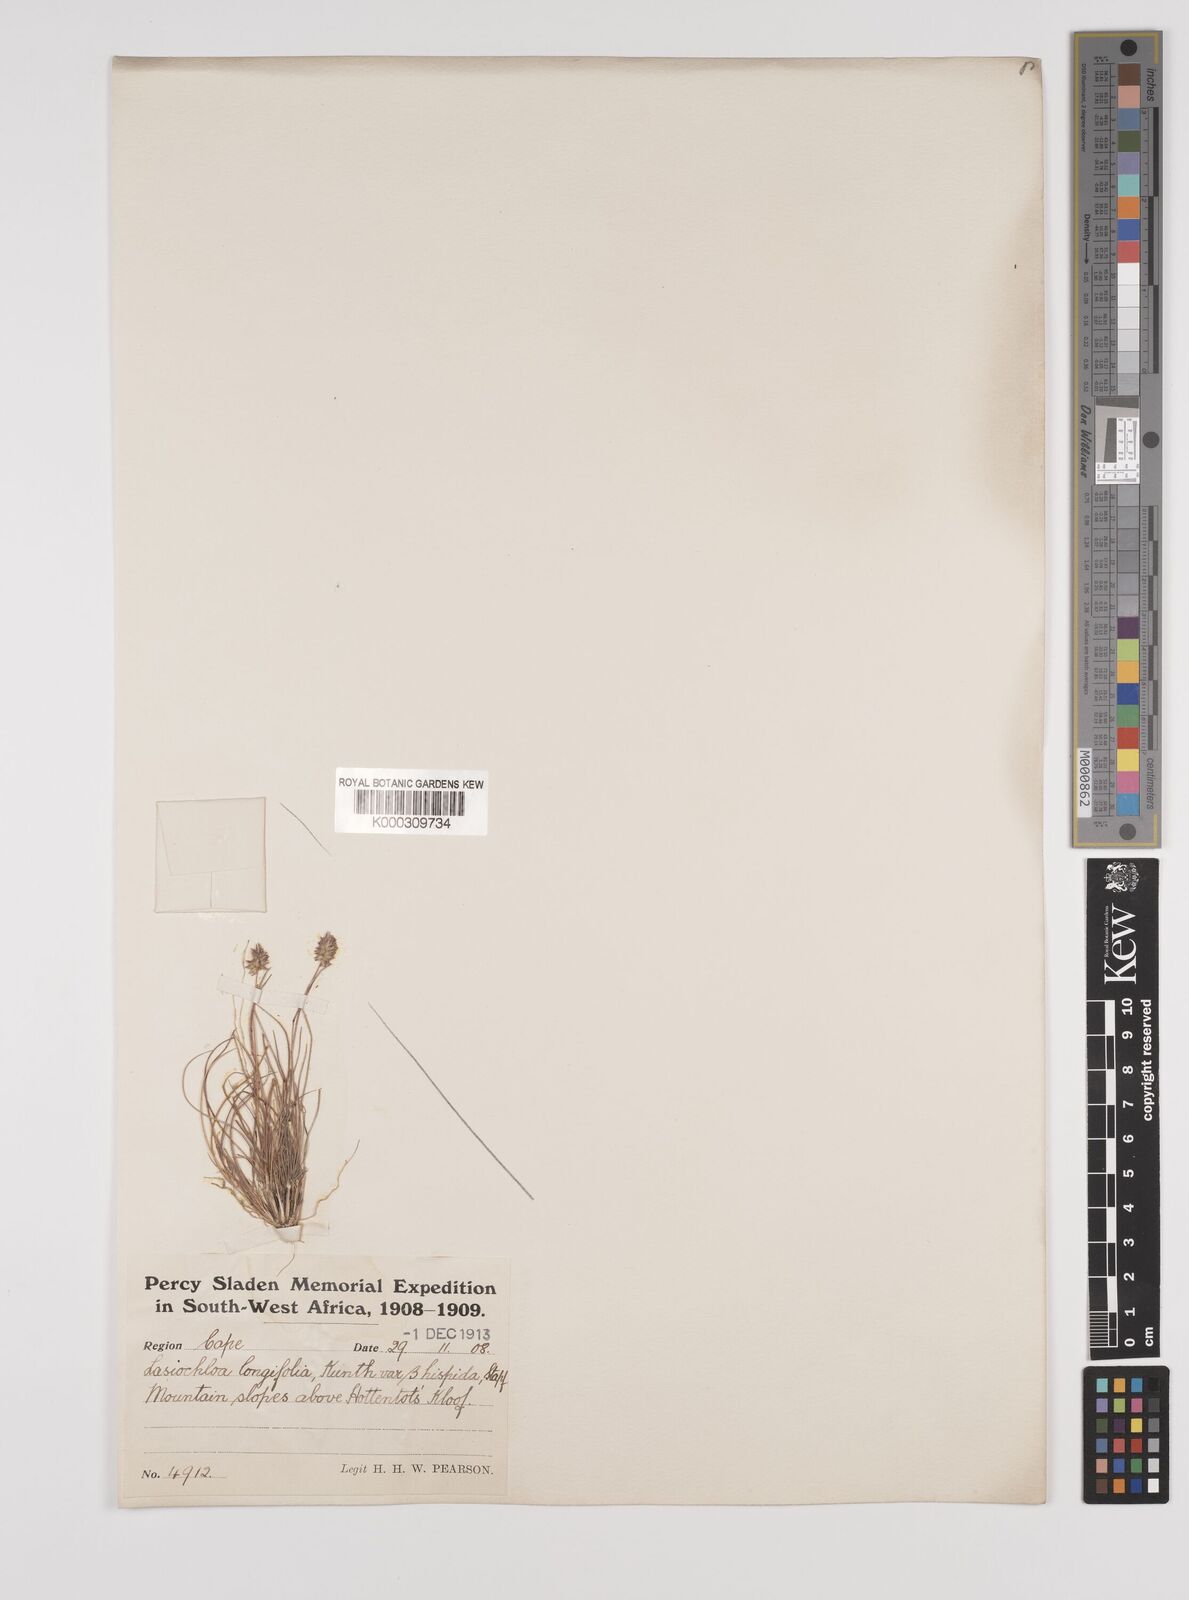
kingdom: Plantae
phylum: Tracheophyta
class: Liliopsida
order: Poales
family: Poaceae
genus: Tribolium
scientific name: Tribolium hispidum
